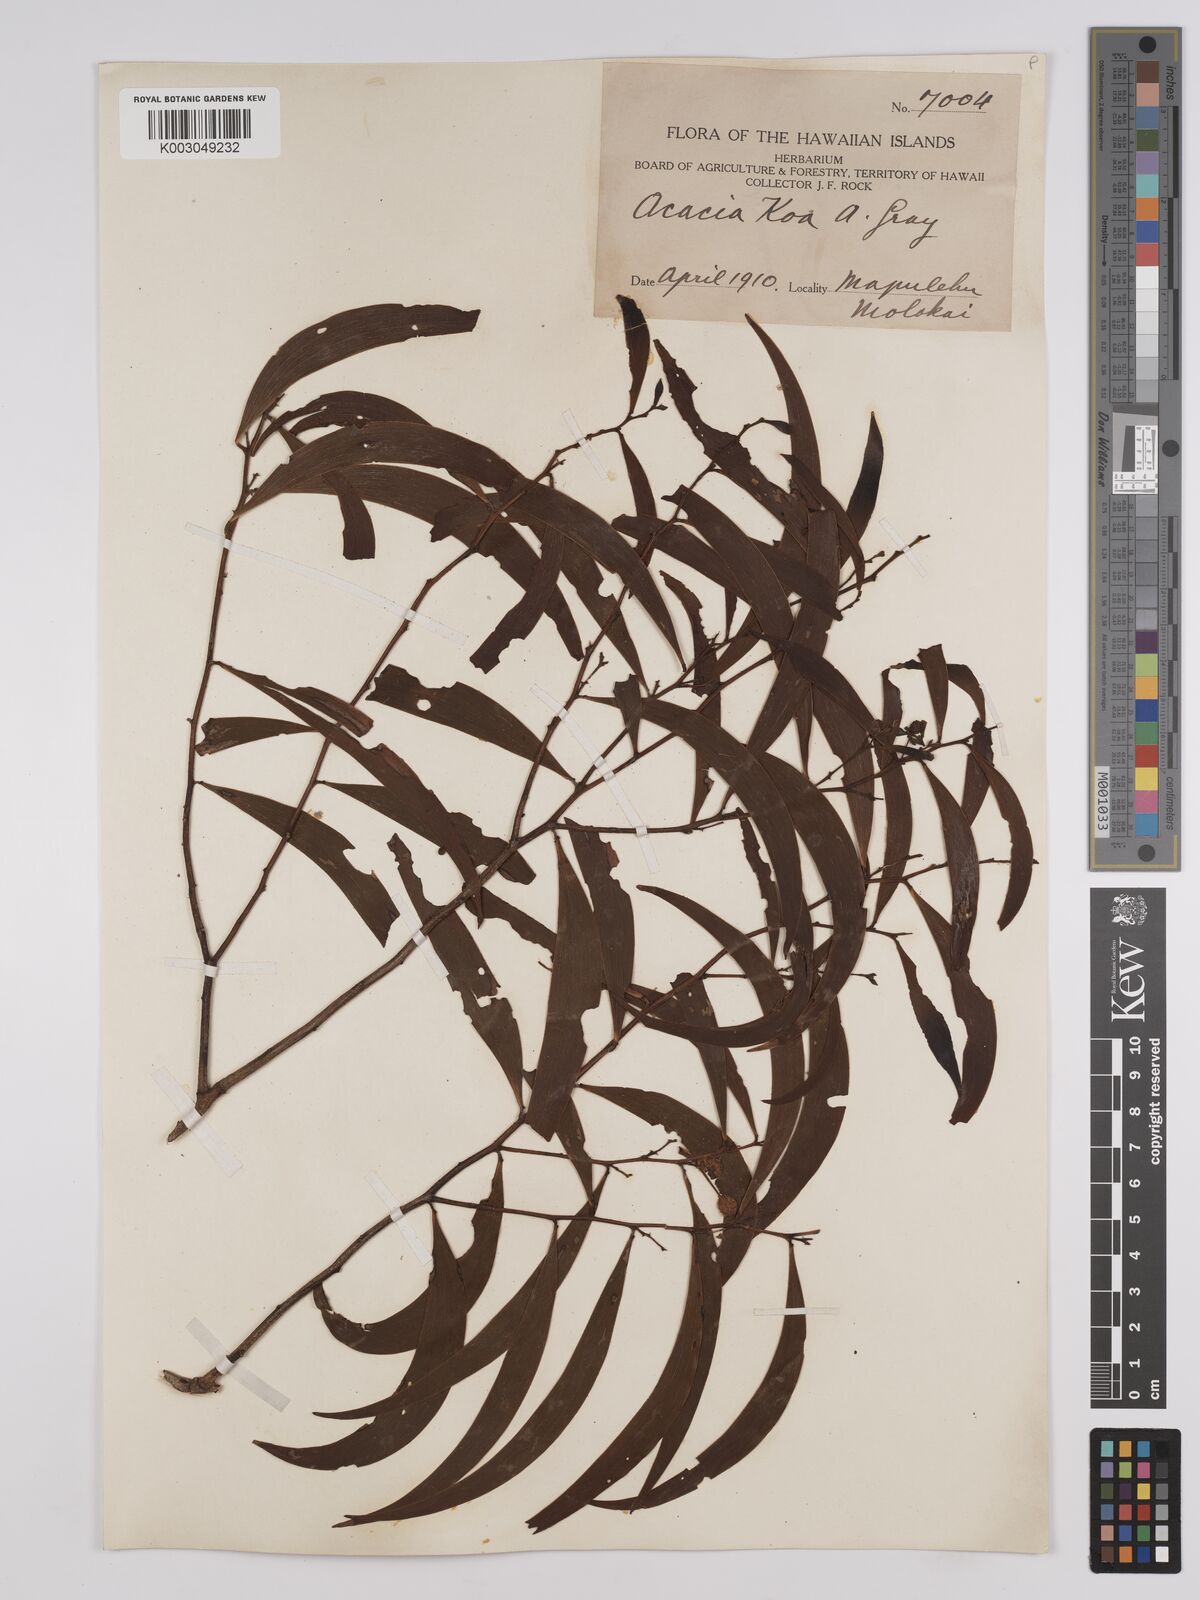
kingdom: Plantae
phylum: Tracheophyta
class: Magnoliopsida
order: Fabales
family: Fabaceae
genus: Acacia
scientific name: Acacia koa
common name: Gray koa
